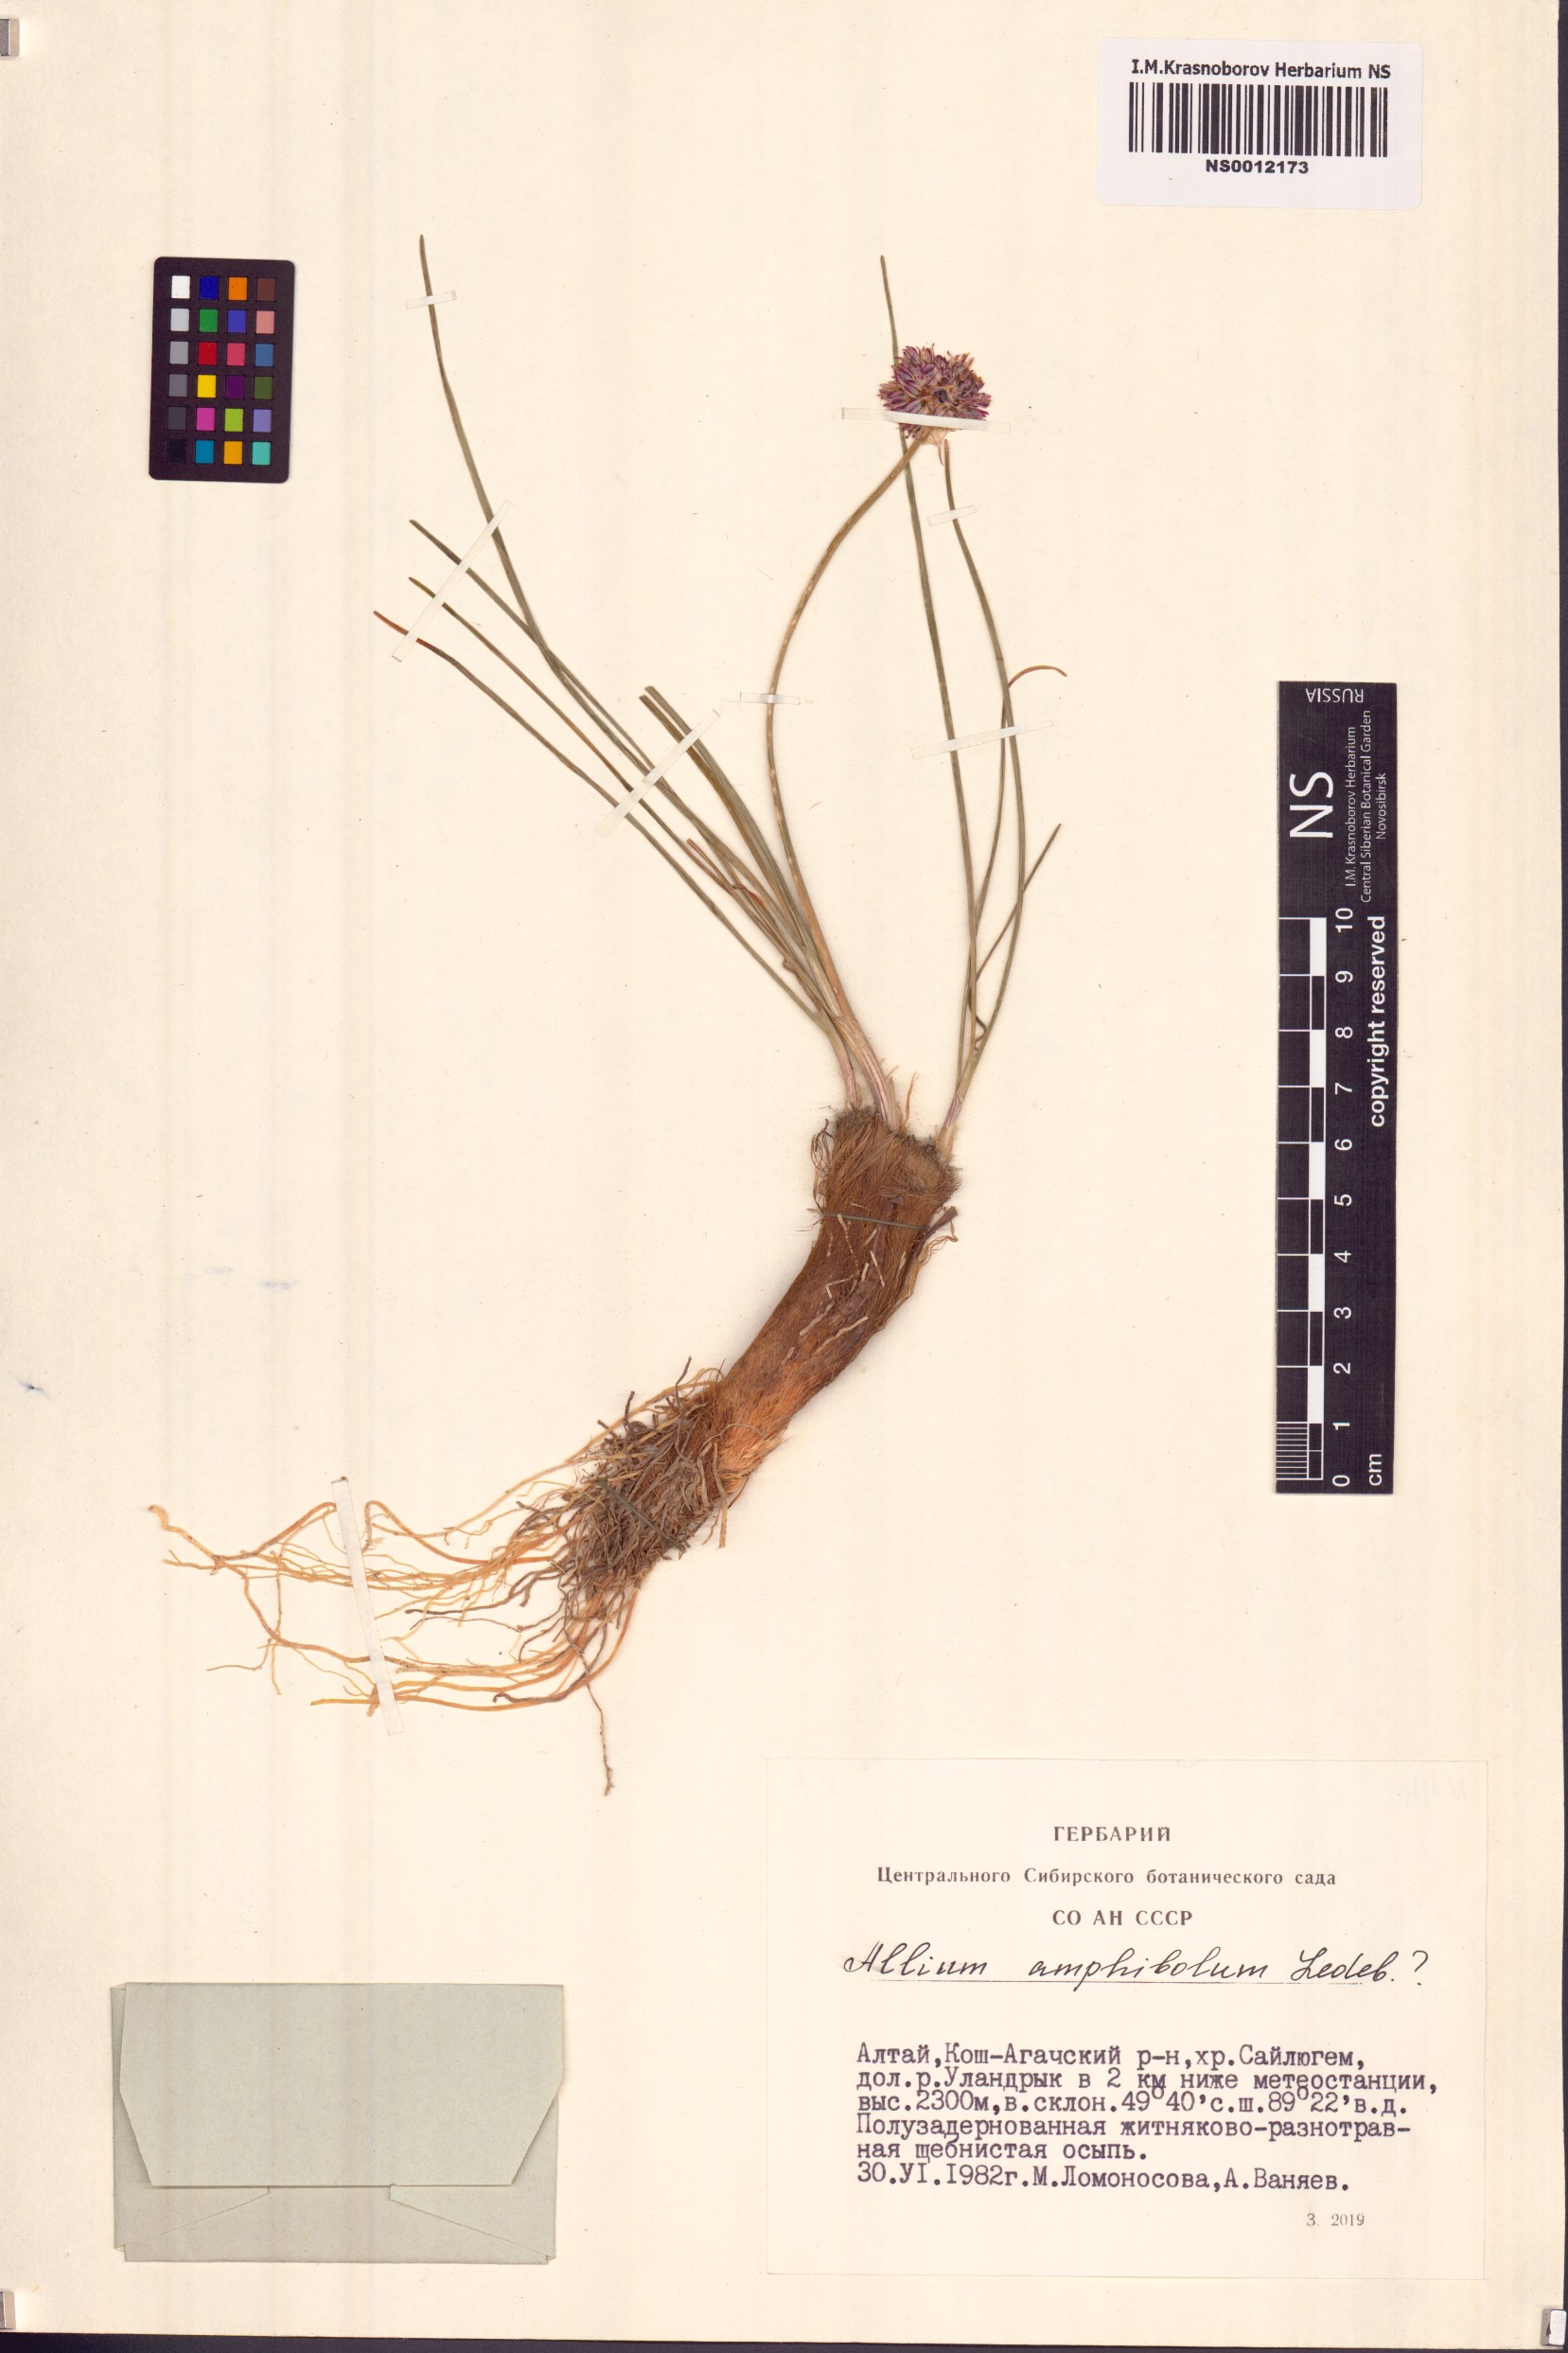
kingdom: Plantae
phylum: Tracheophyta
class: Liliopsida
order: Asparagales
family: Amaryllidaceae
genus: Allium
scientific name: Allium amphibolum
